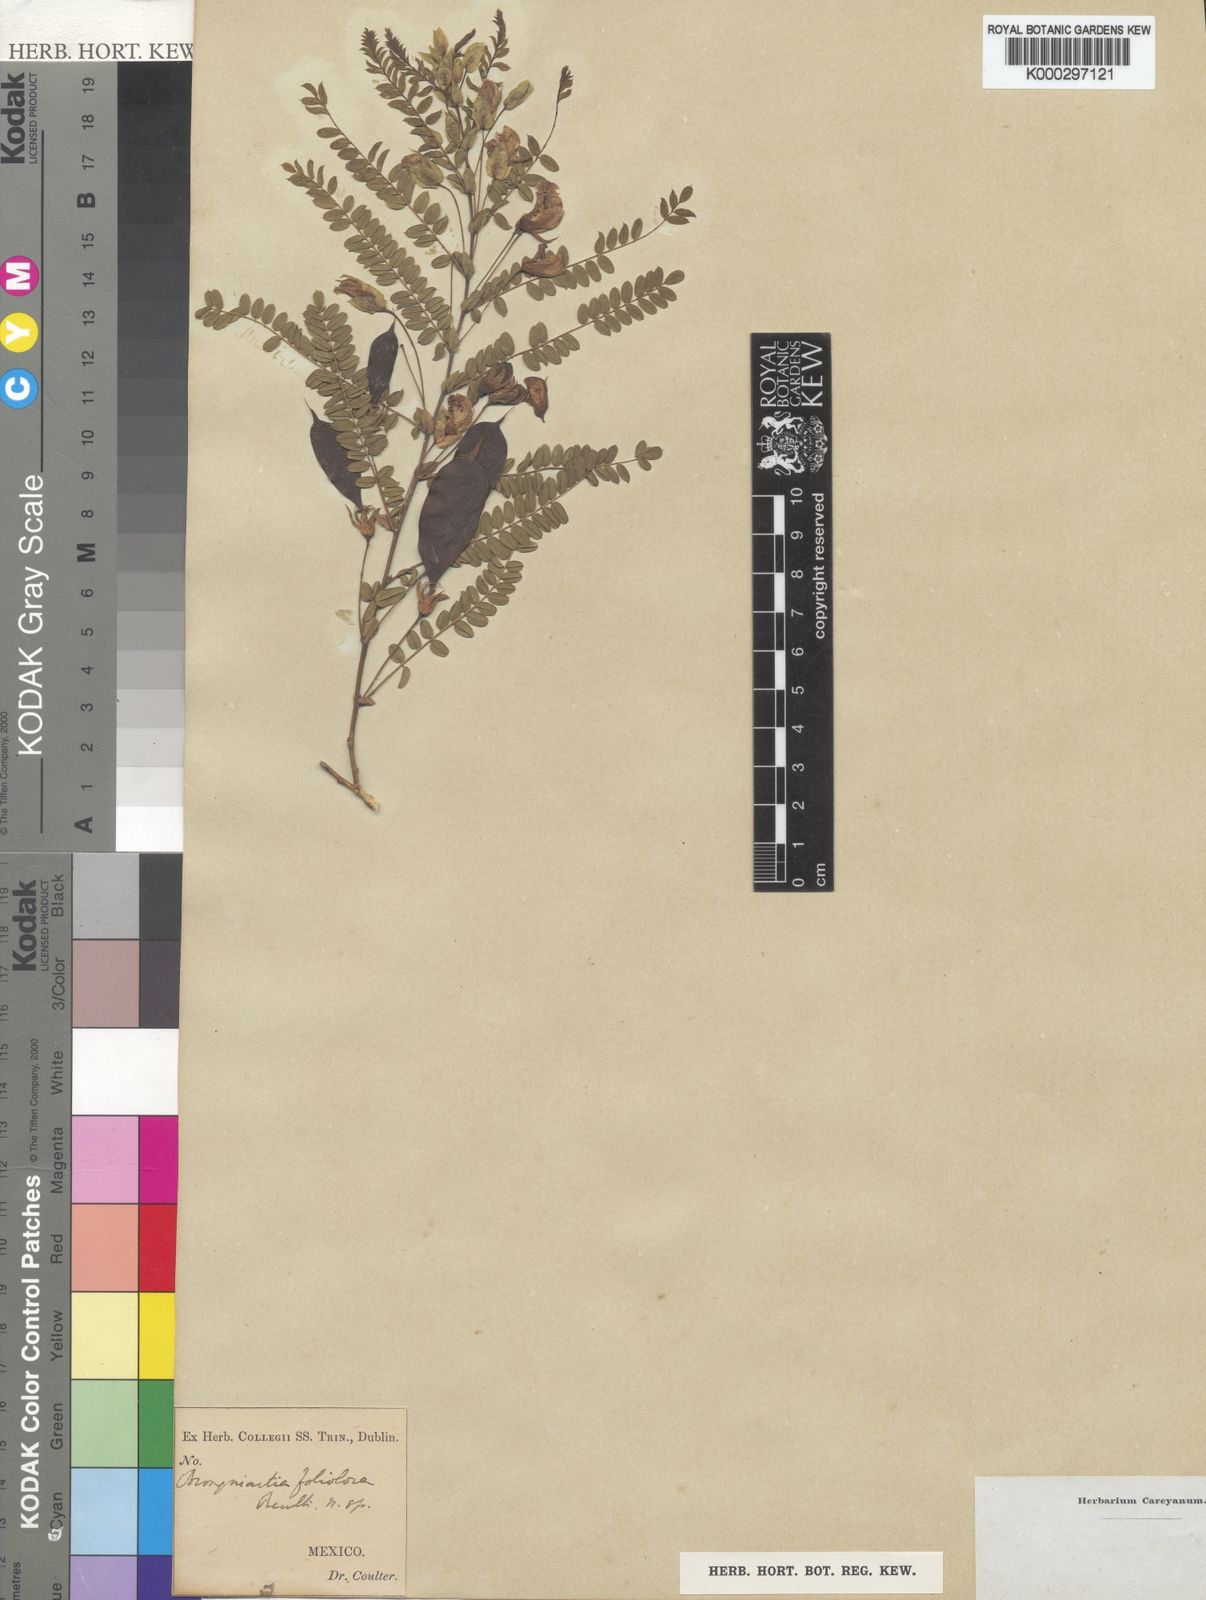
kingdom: Plantae
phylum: Tracheophyta
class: Magnoliopsida
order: Fabales
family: Fabaceae
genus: Brongniartia
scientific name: Brongniartia foliolosa
